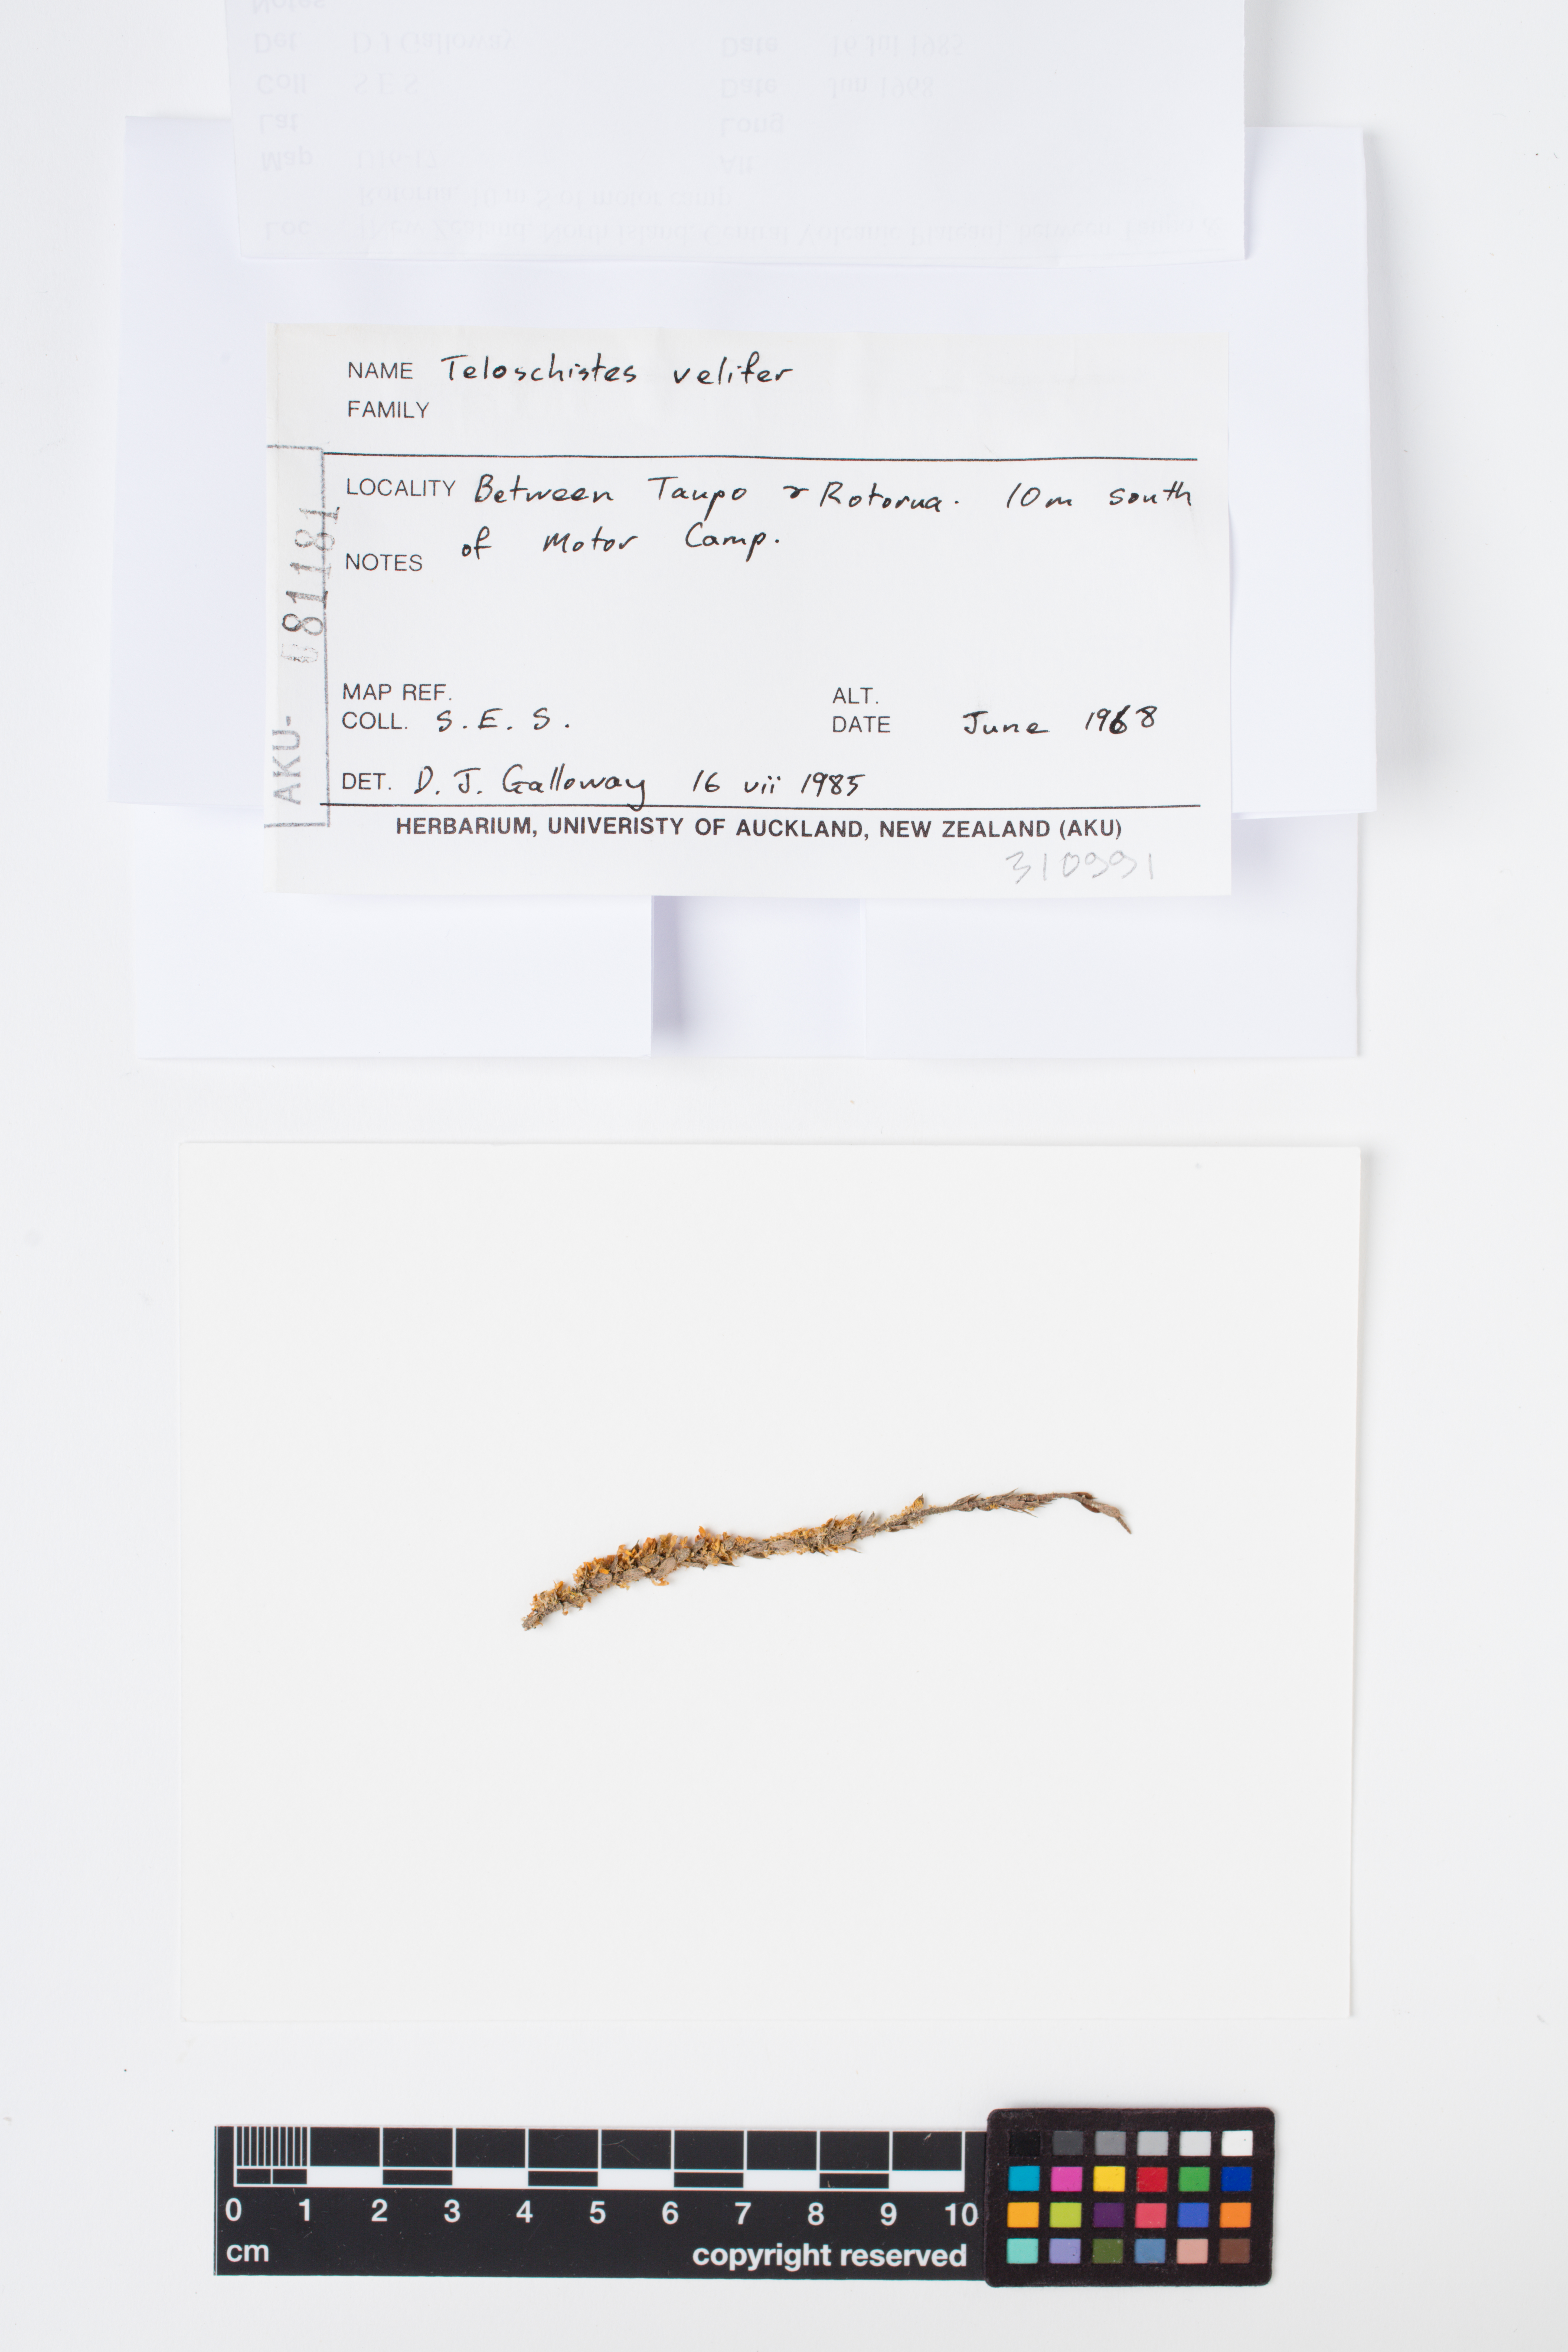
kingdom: Fungi
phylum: Ascomycota
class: Lecanoromycetes
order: Teloschistales
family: Teloschistaceae
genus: Teloschistes
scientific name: Teloschistes velifer
